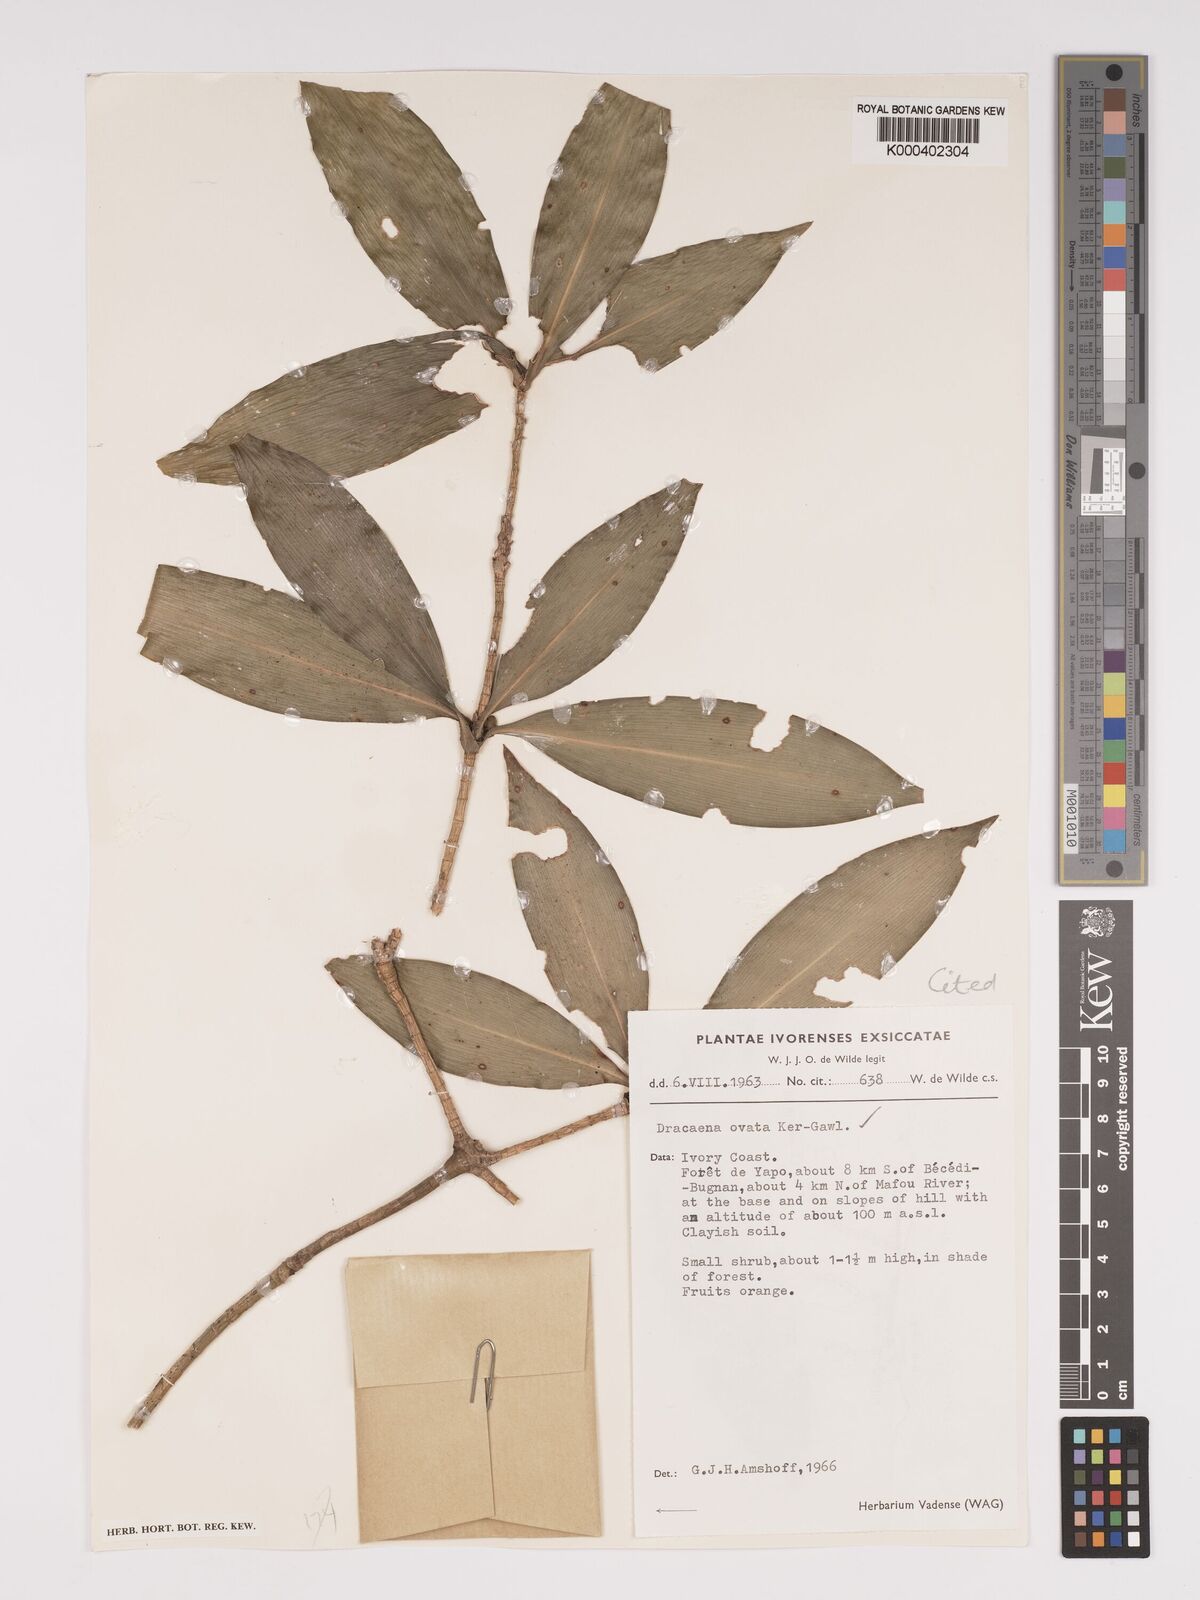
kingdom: Plantae
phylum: Tracheophyta
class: Liliopsida
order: Asparagales
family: Asparagaceae
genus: Dracaena
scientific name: Dracaena ovata
